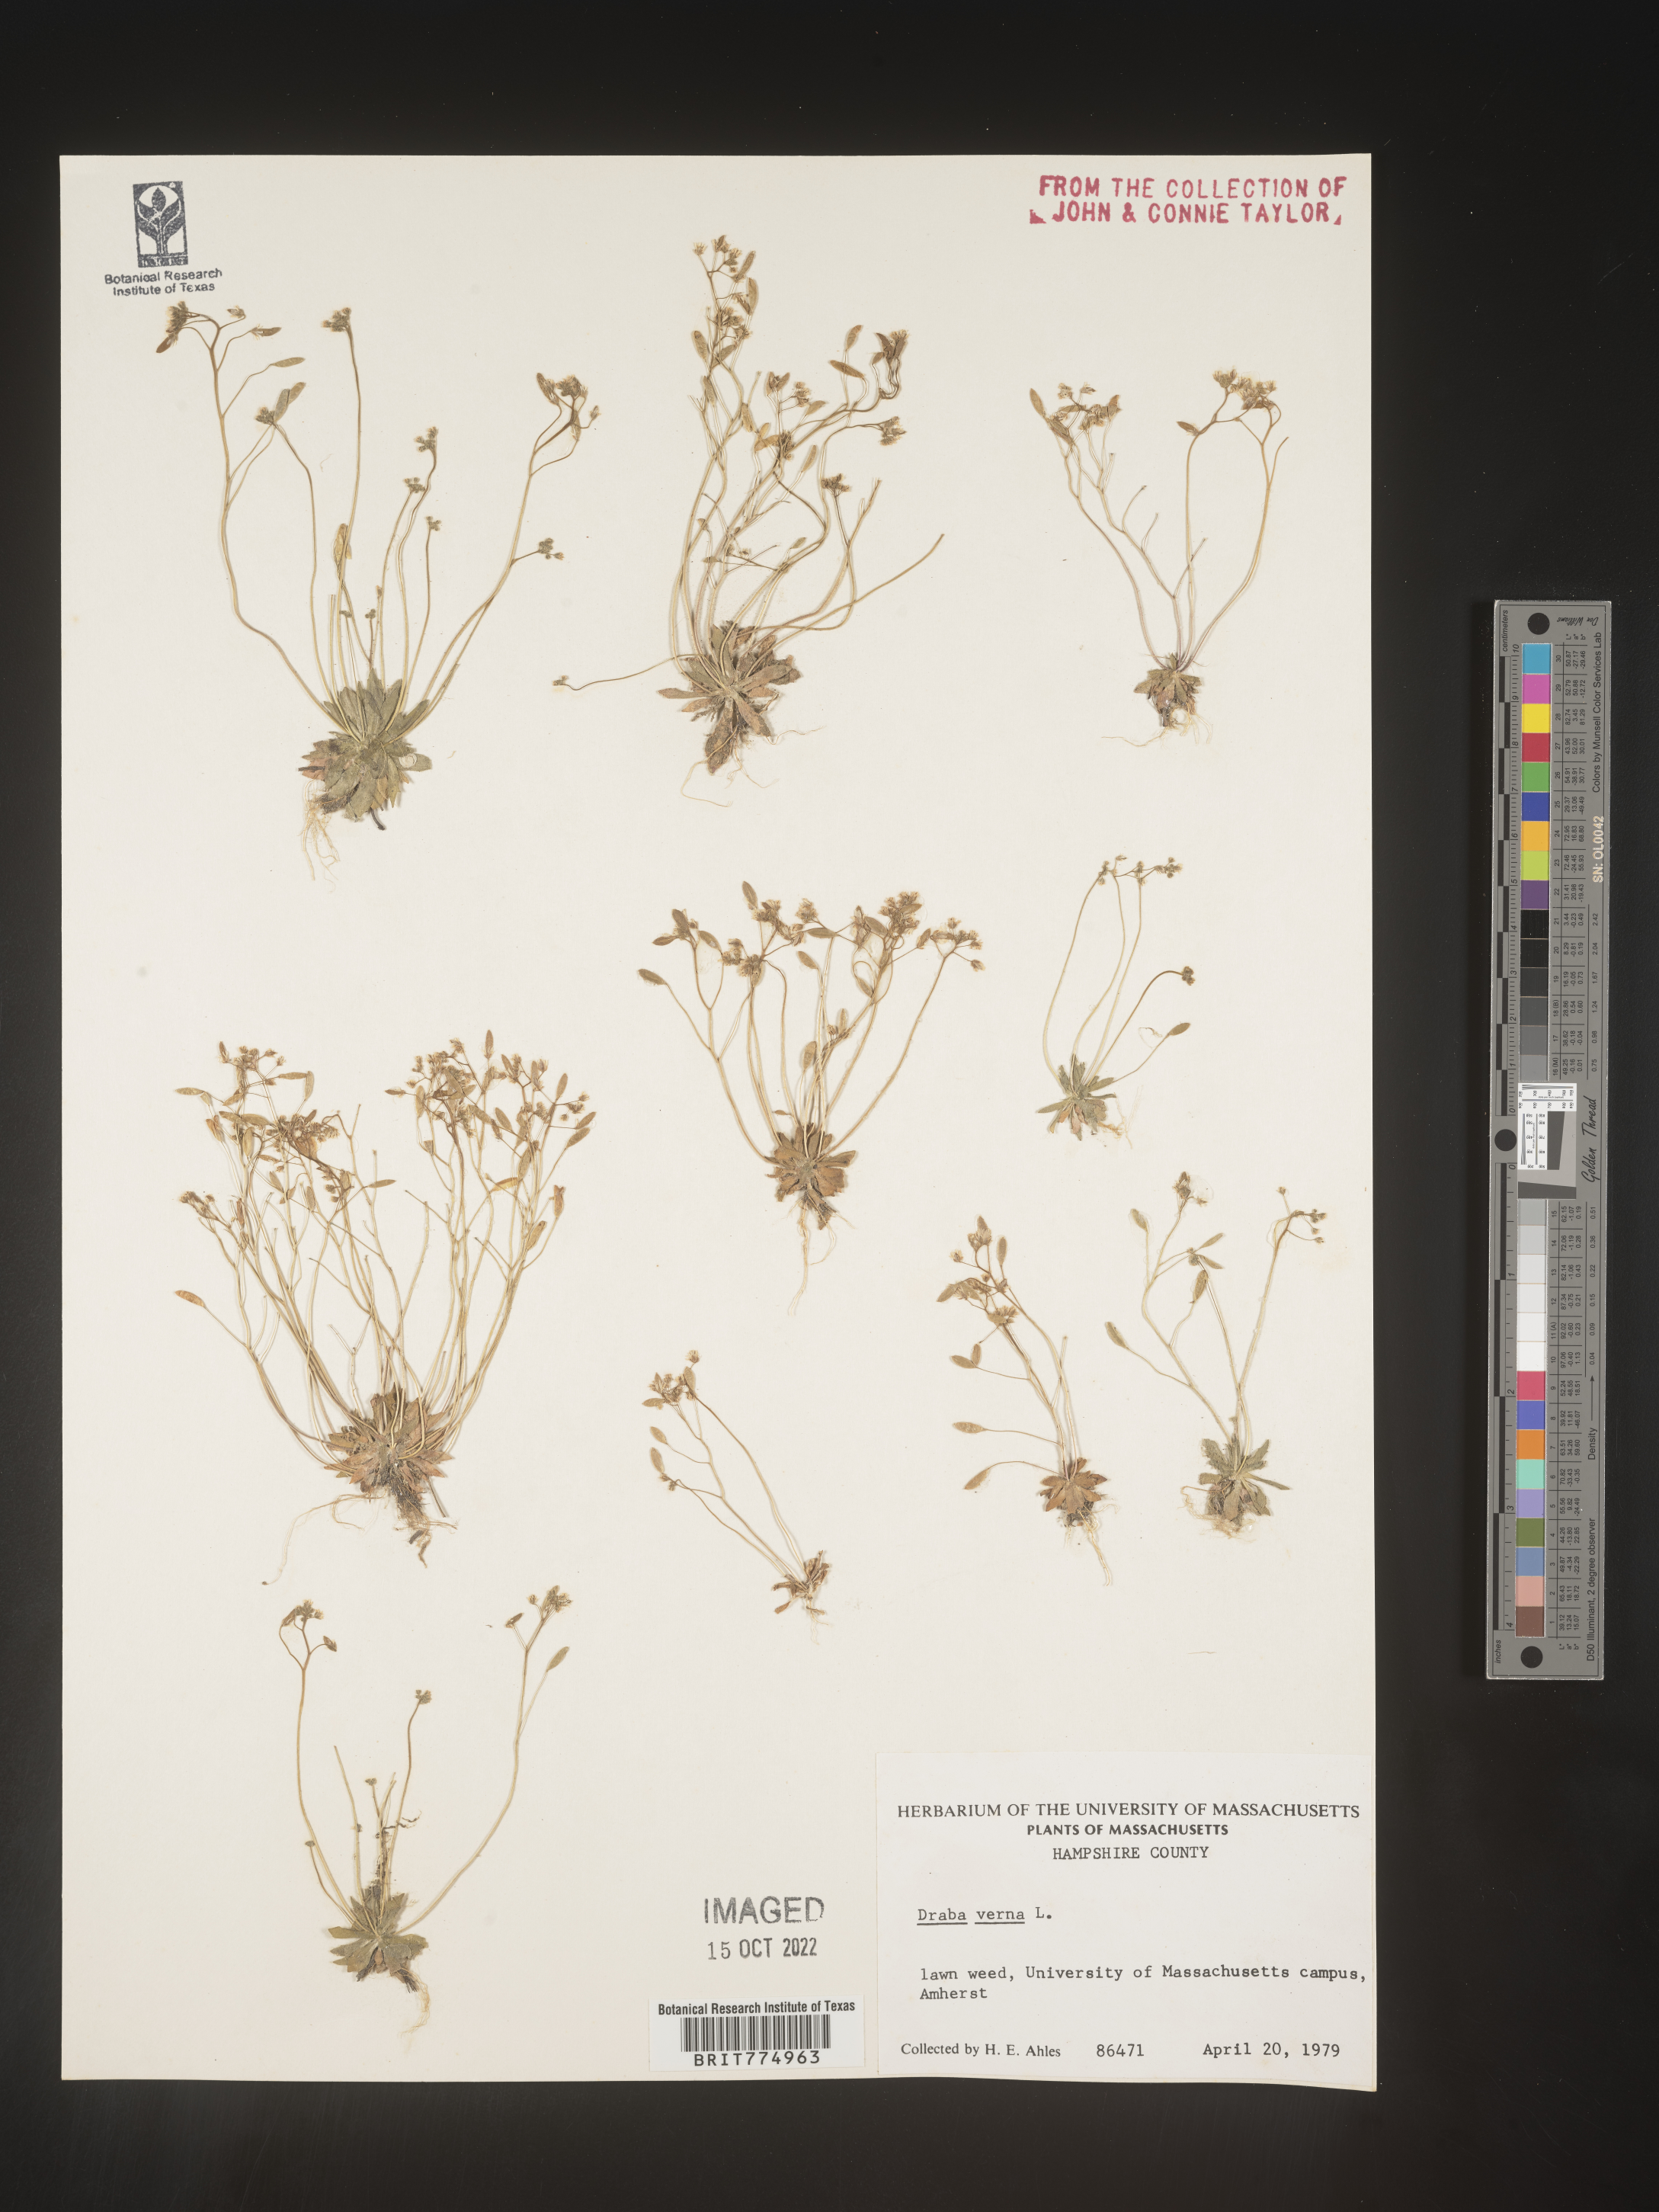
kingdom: Plantae
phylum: Tracheophyta
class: Magnoliopsida
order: Brassicales
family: Brassicaceae
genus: Draba
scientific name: Draba verna
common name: Spring draba
